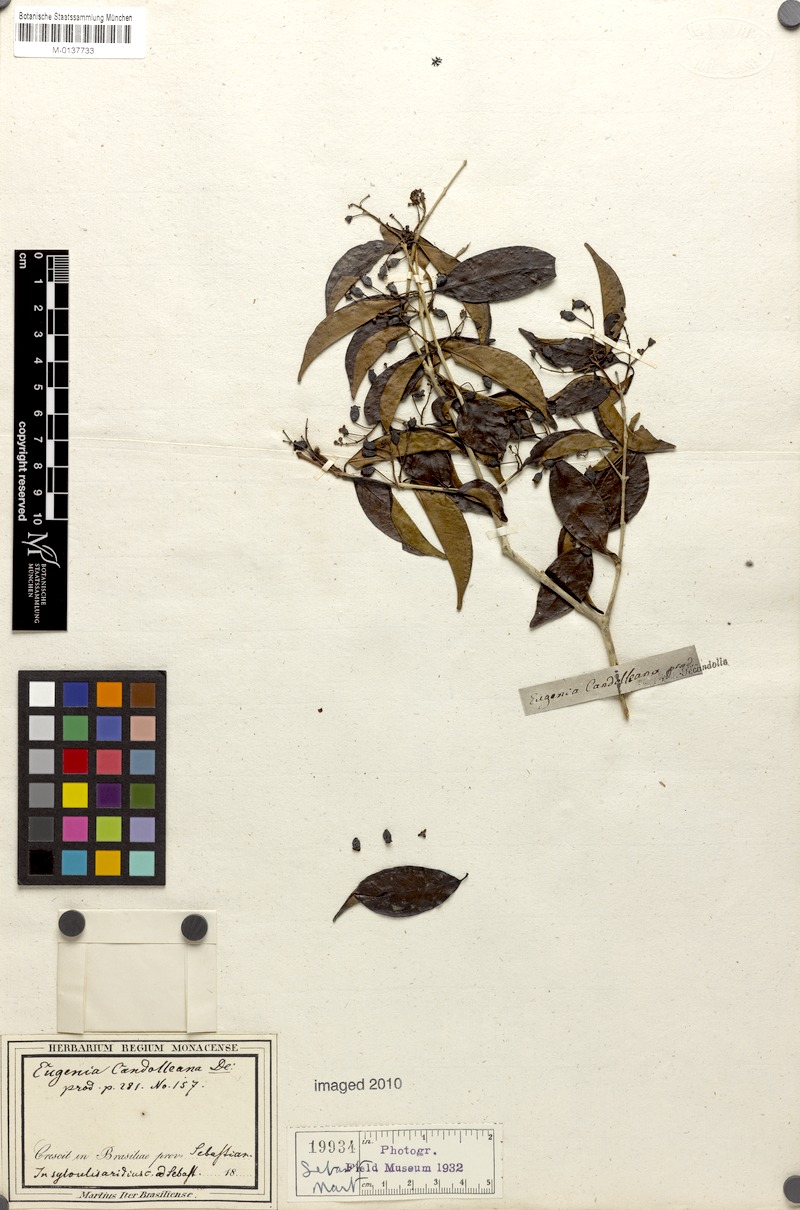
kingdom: Plantae
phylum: Tracheophyta
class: Magnoliopsida
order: Myrtales
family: Myrtaceae
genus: Eugenia
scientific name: Eugenia candolleana
